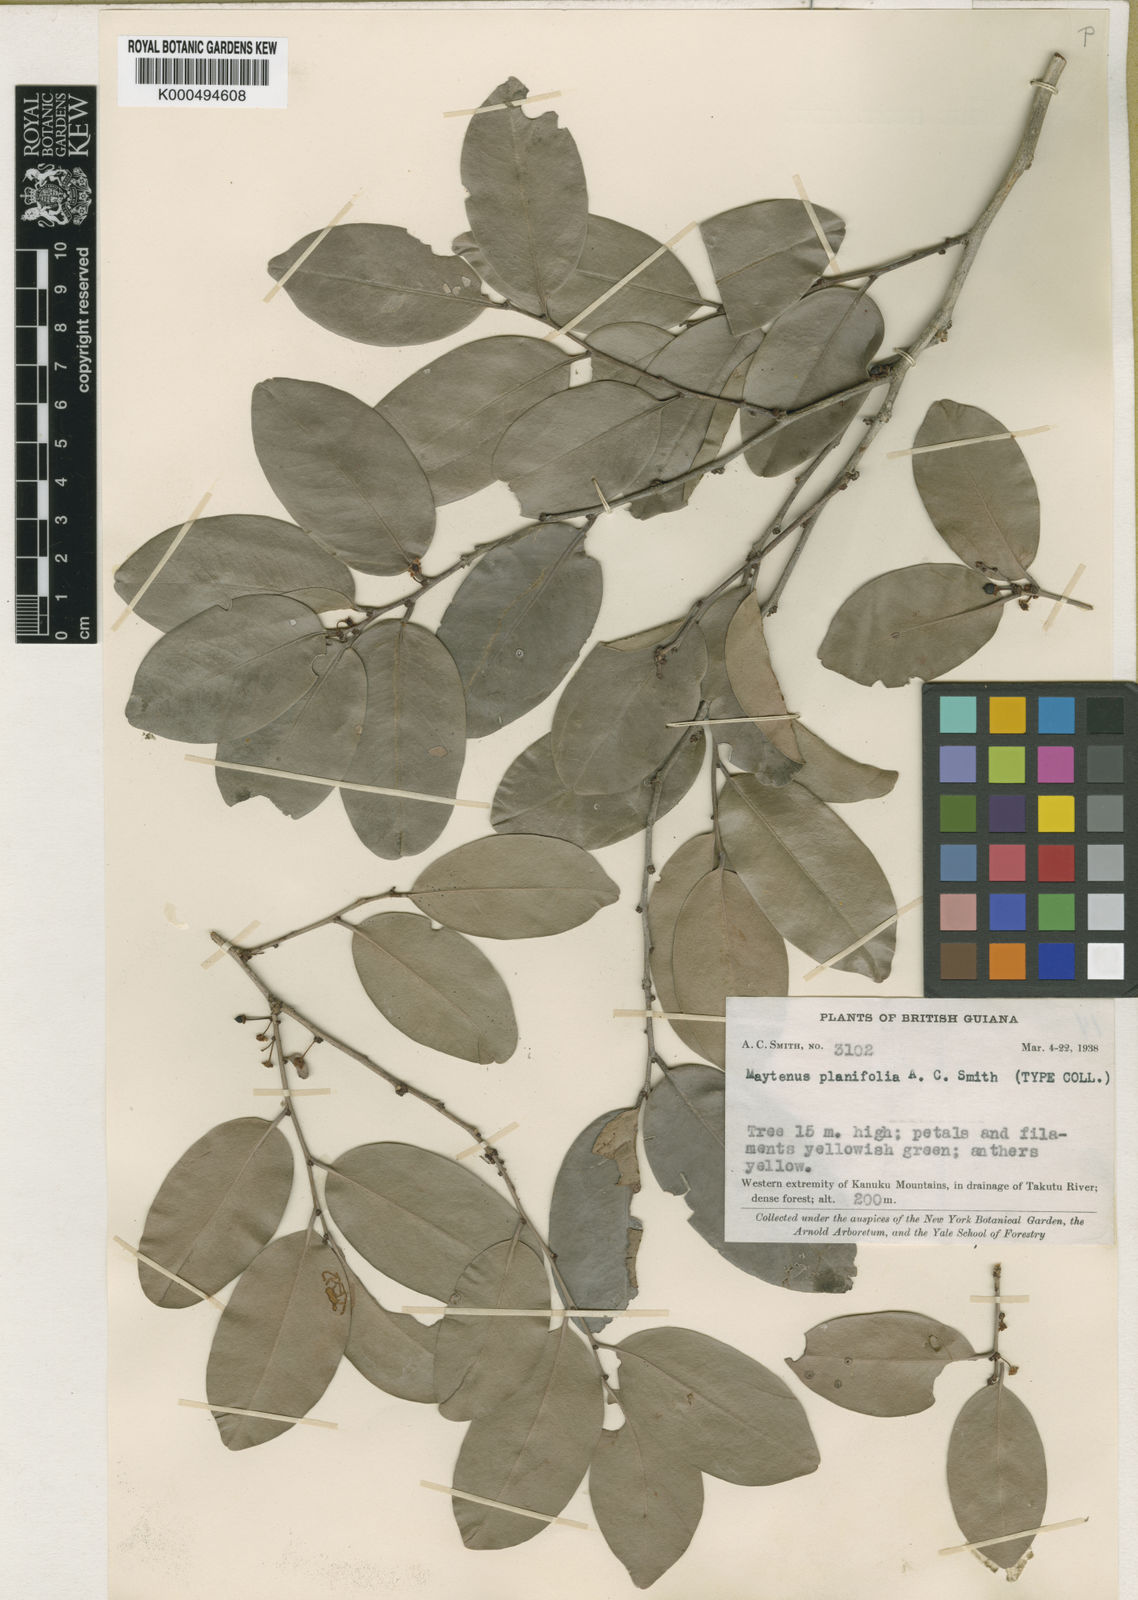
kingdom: Plantae
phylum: Tracheophyta
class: Magnoliopsida
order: Celastrales
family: Celastraceae
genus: Monteverdia
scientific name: Monteverdia planifolia
